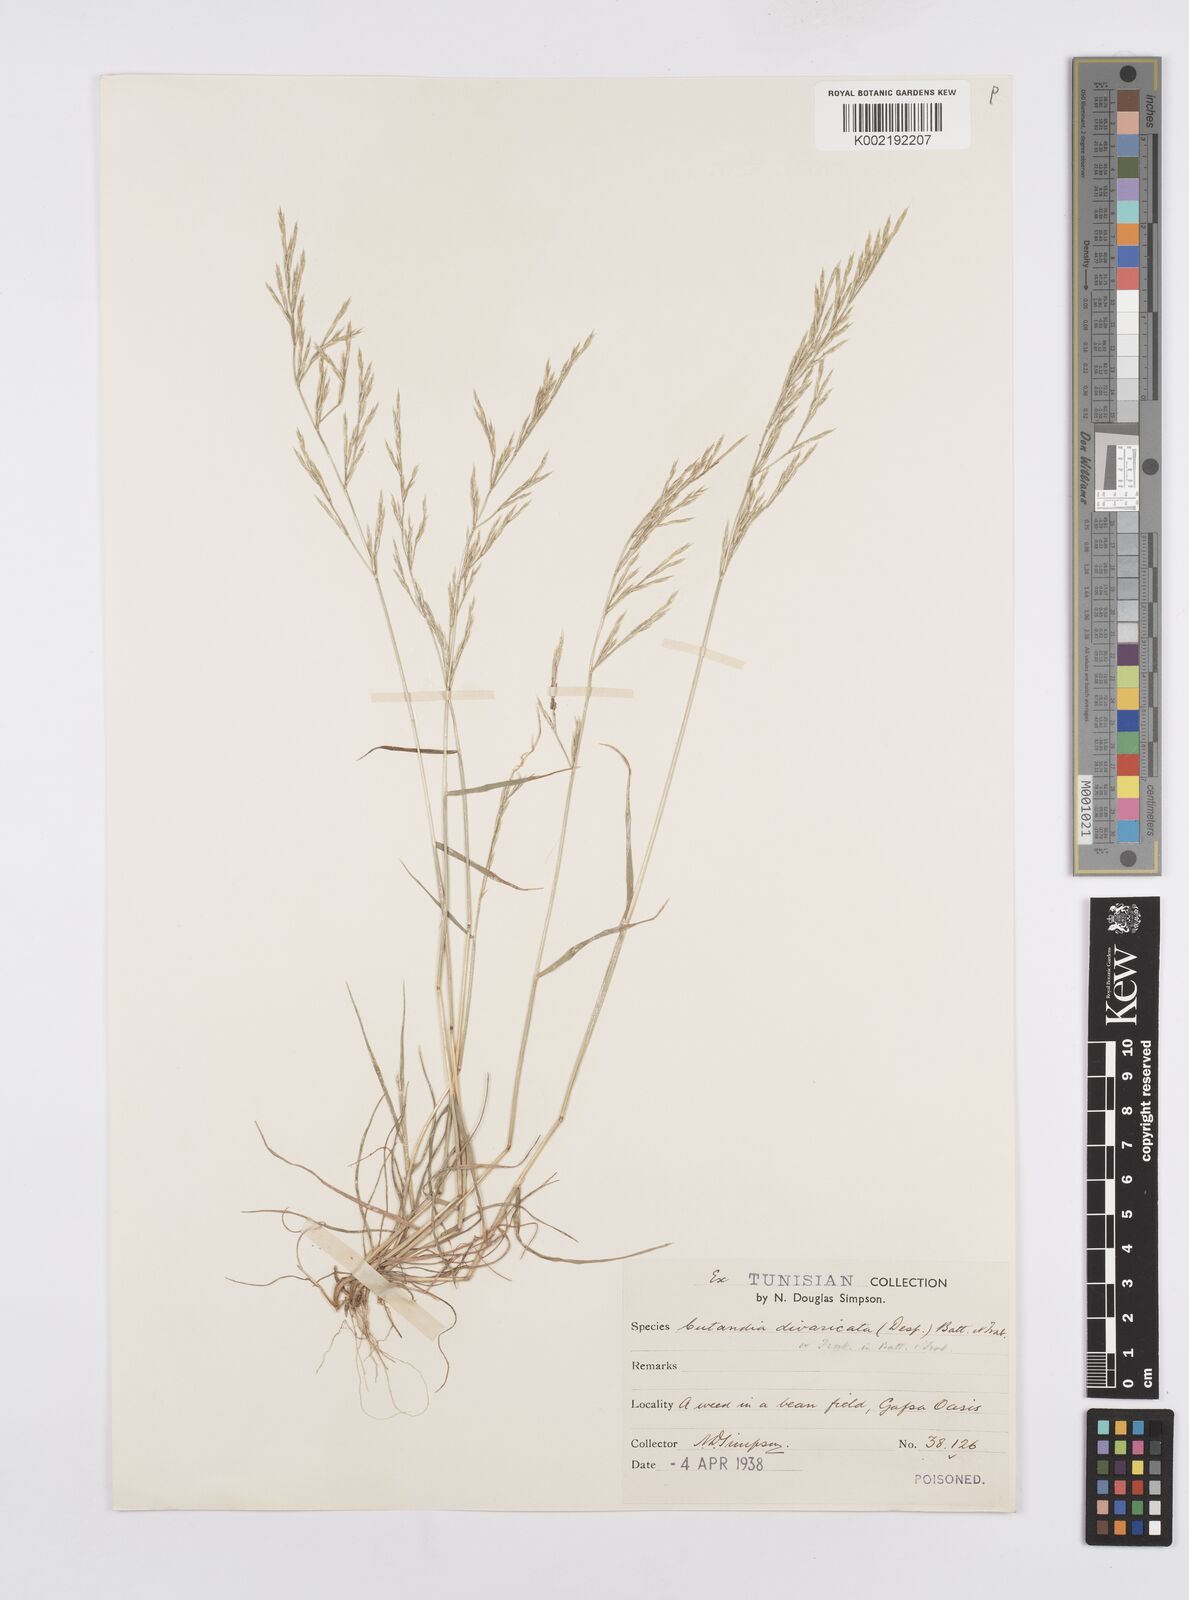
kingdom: Plantae
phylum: Tracheophyta
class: Liliopsida
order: Poales
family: Poaceae
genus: Cutandia
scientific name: Cutandia divaricata
